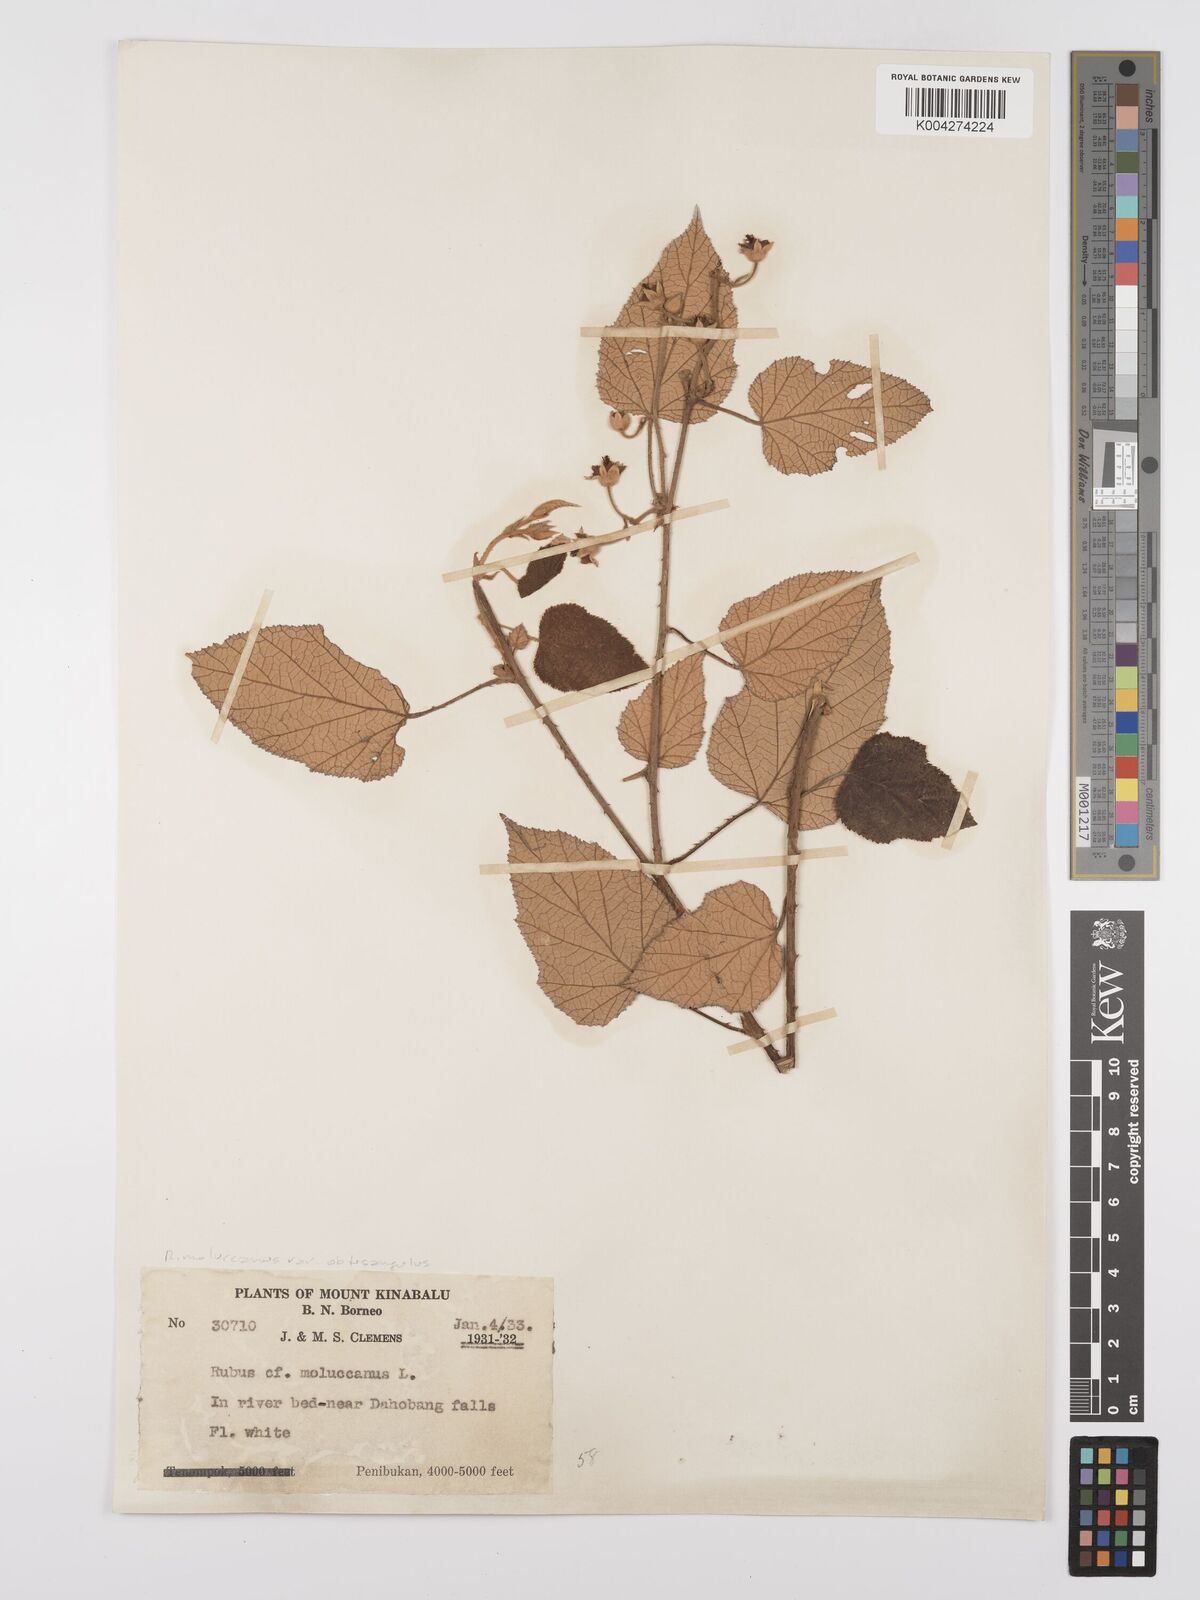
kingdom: Plantae
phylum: Tracheophyta
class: Magnoliopsida
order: Rosales
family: Rosaceae
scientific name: Rosaceae
